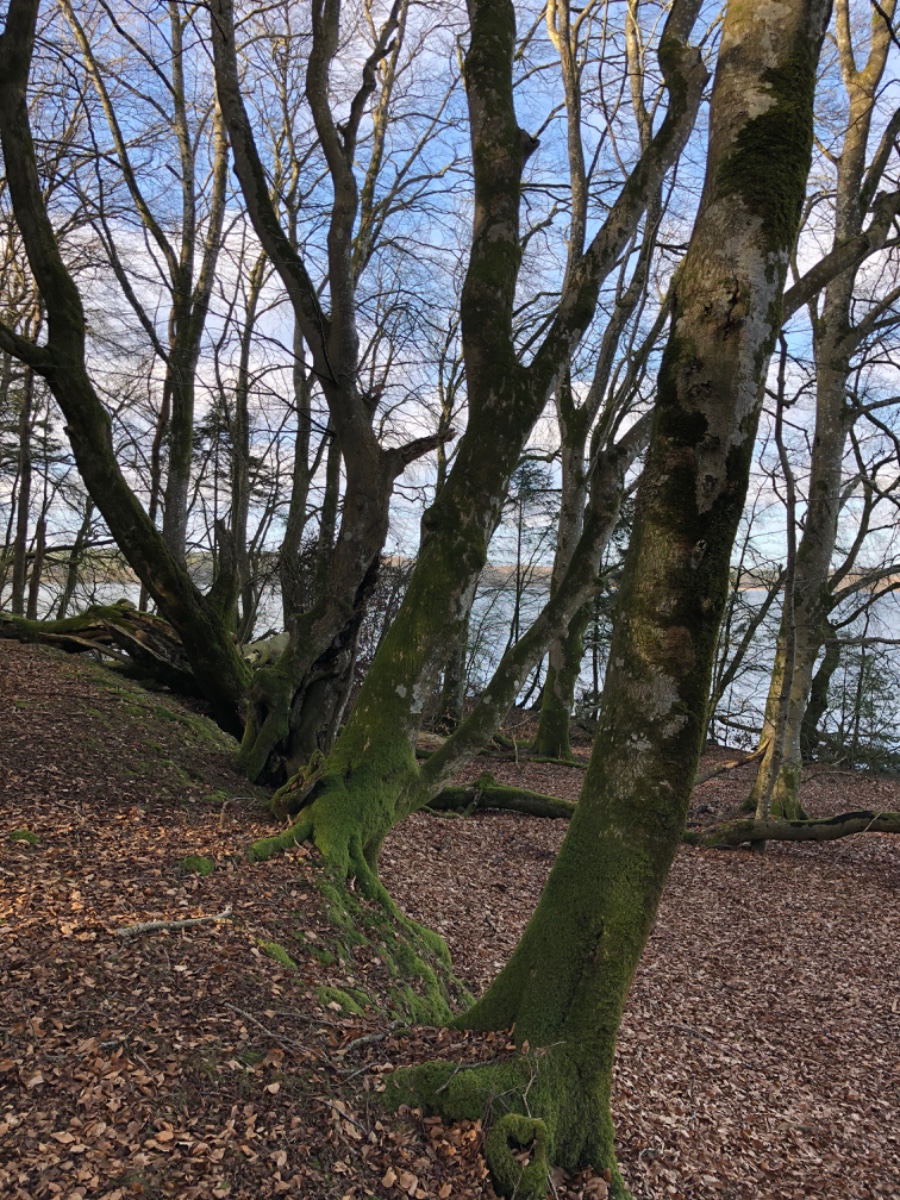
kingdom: Fungi
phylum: Ascomycota
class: Lecanoromycetes
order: Peltigerales
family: Lobariaceae
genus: Lobaria
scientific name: Lobaria pulmonaria
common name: almindelig lungelav
